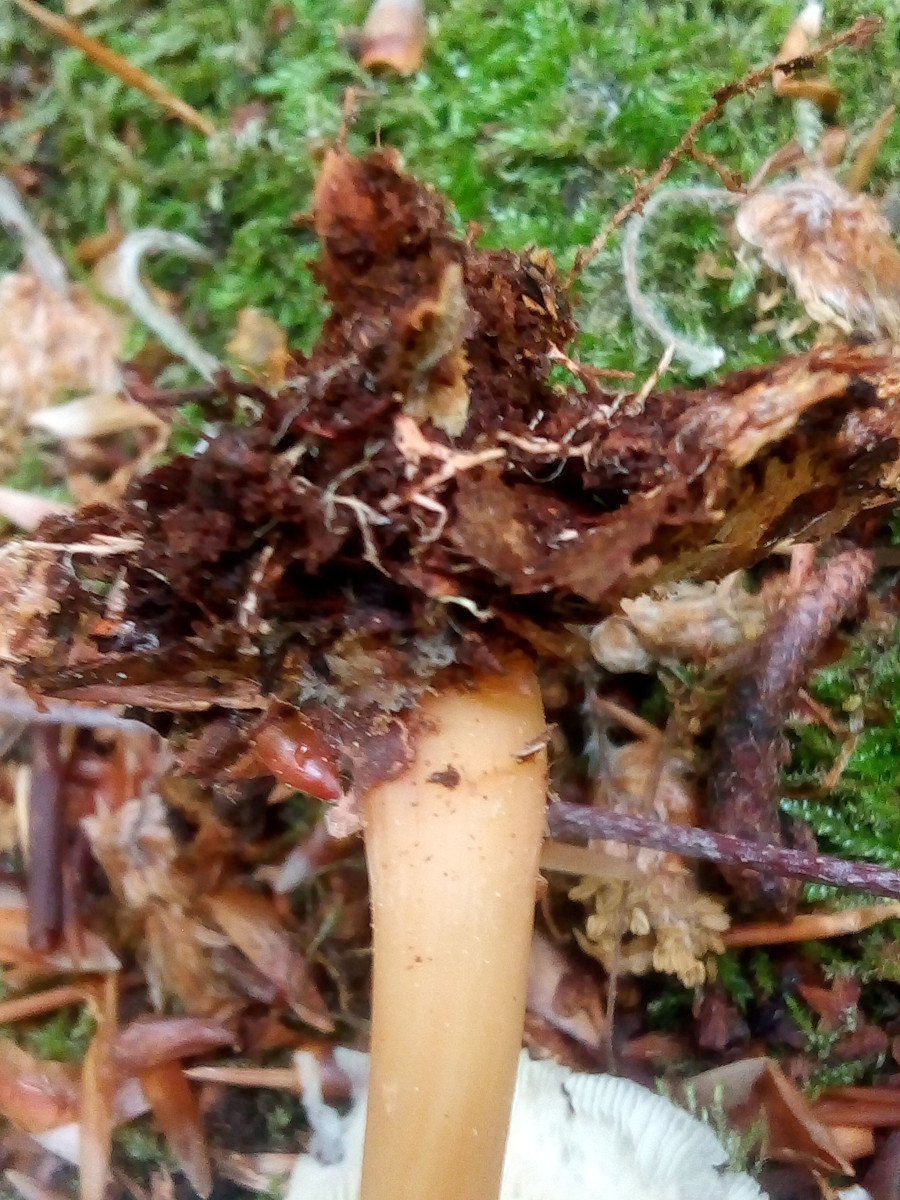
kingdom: Fungi
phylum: Basidiomycota
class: Agaricomycetes
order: Agaricales
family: Omphalotaceae
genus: Gymnopus
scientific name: Gymnopus aquosus
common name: bleg fladhat
